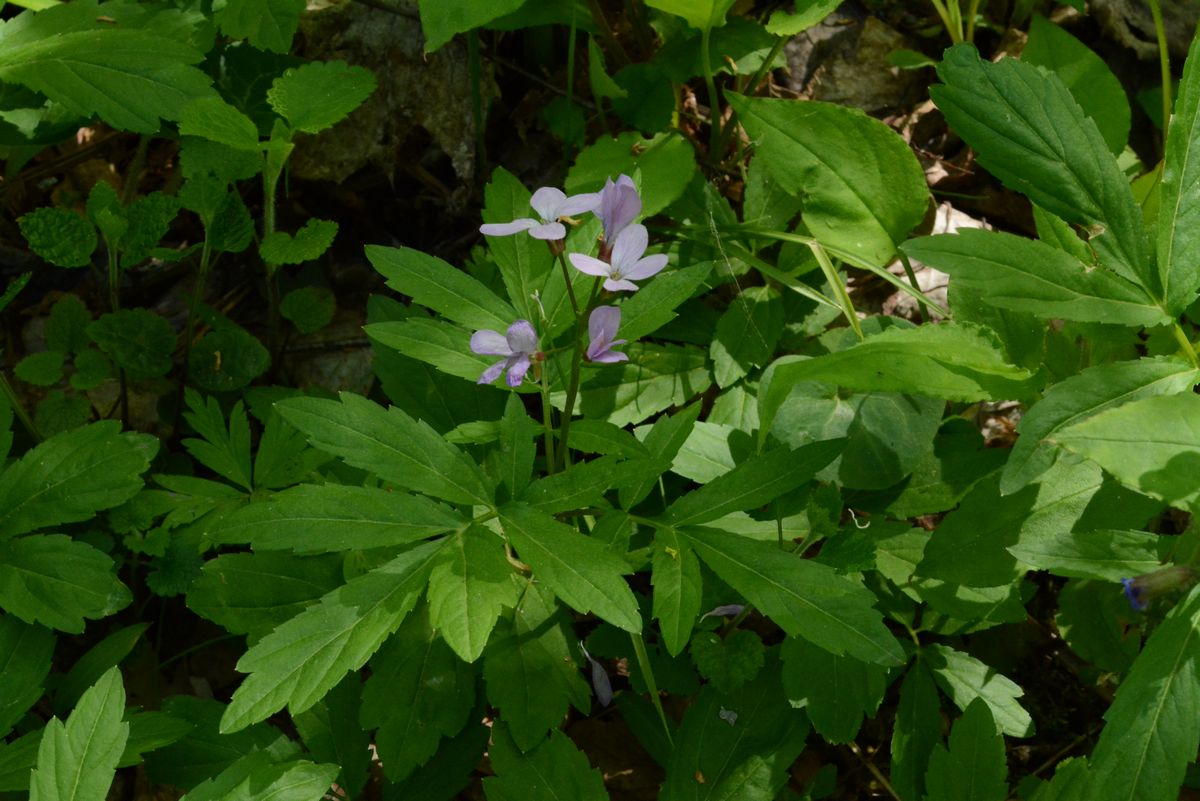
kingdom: Plantae
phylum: Tracheophyta
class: Magnoliopsida
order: Brassicales
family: Brassicaceae
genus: Cardamine
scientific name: Cardamine quinquefolia
